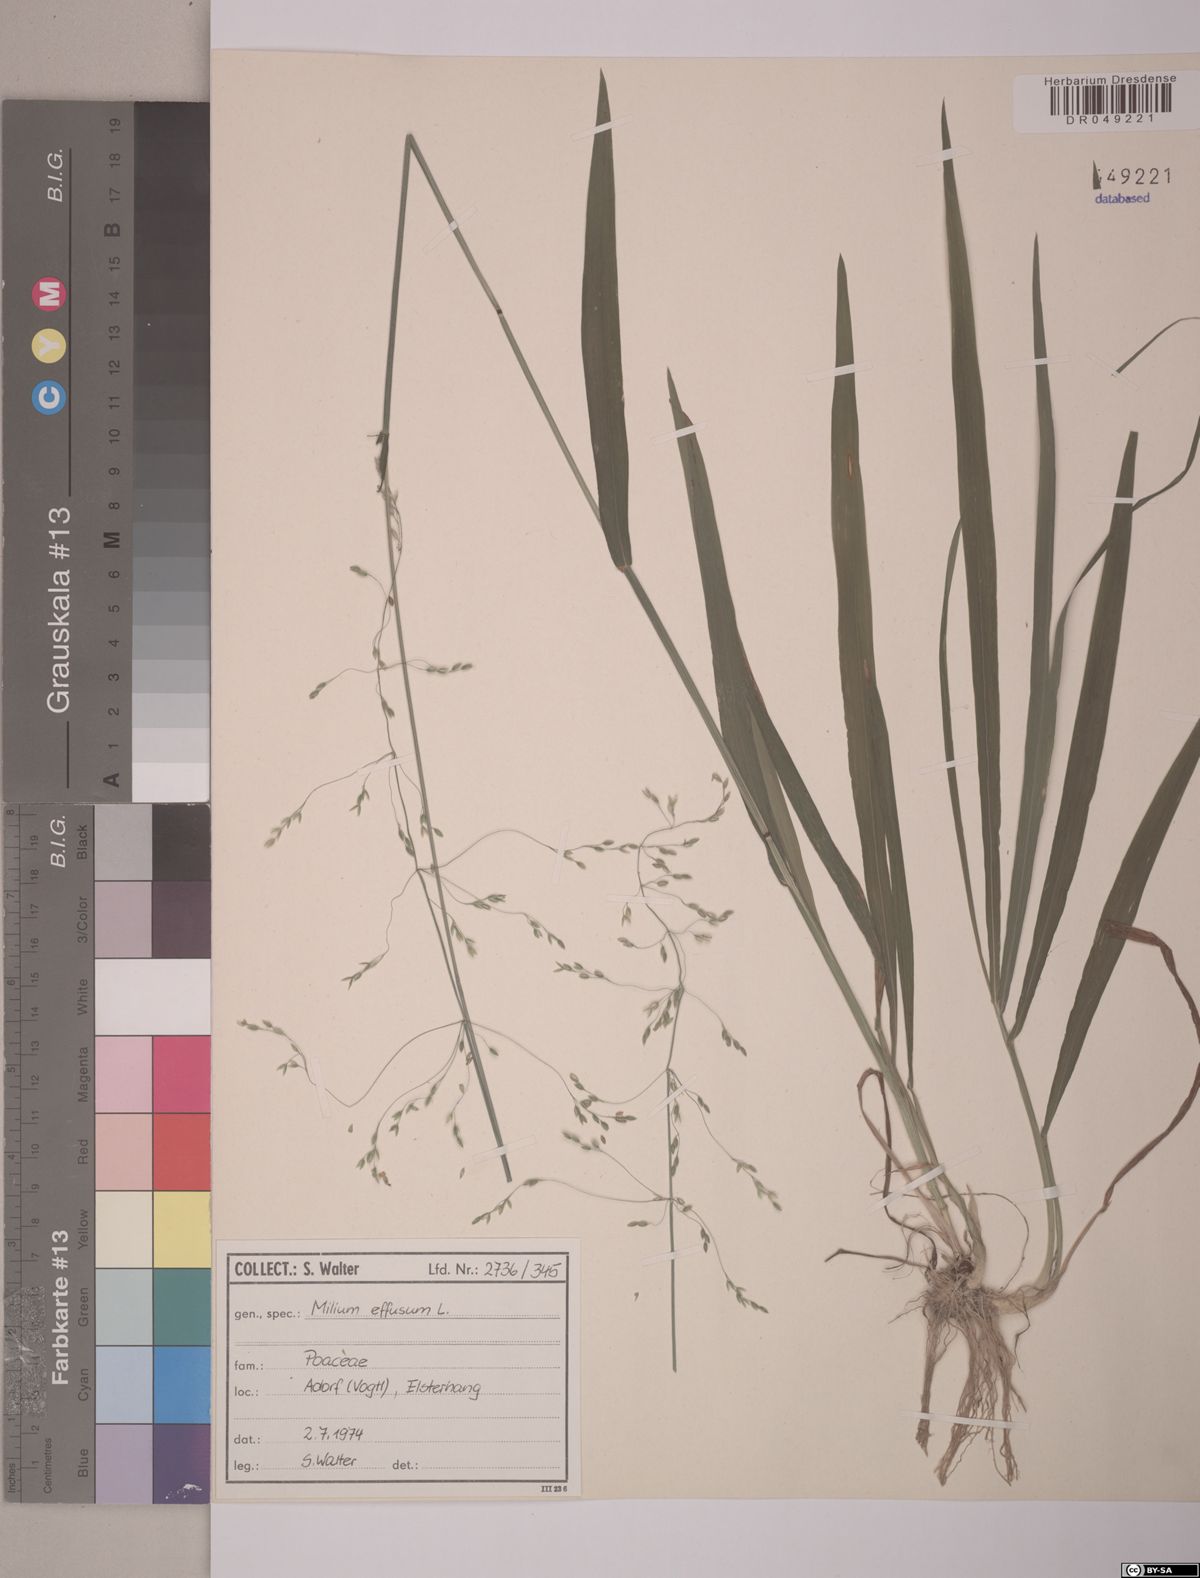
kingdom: Plantae
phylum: Tracheophyta
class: Liliopsida
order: Poales
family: Poaceae
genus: Milium
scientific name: Milium effusum
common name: Wood millet
